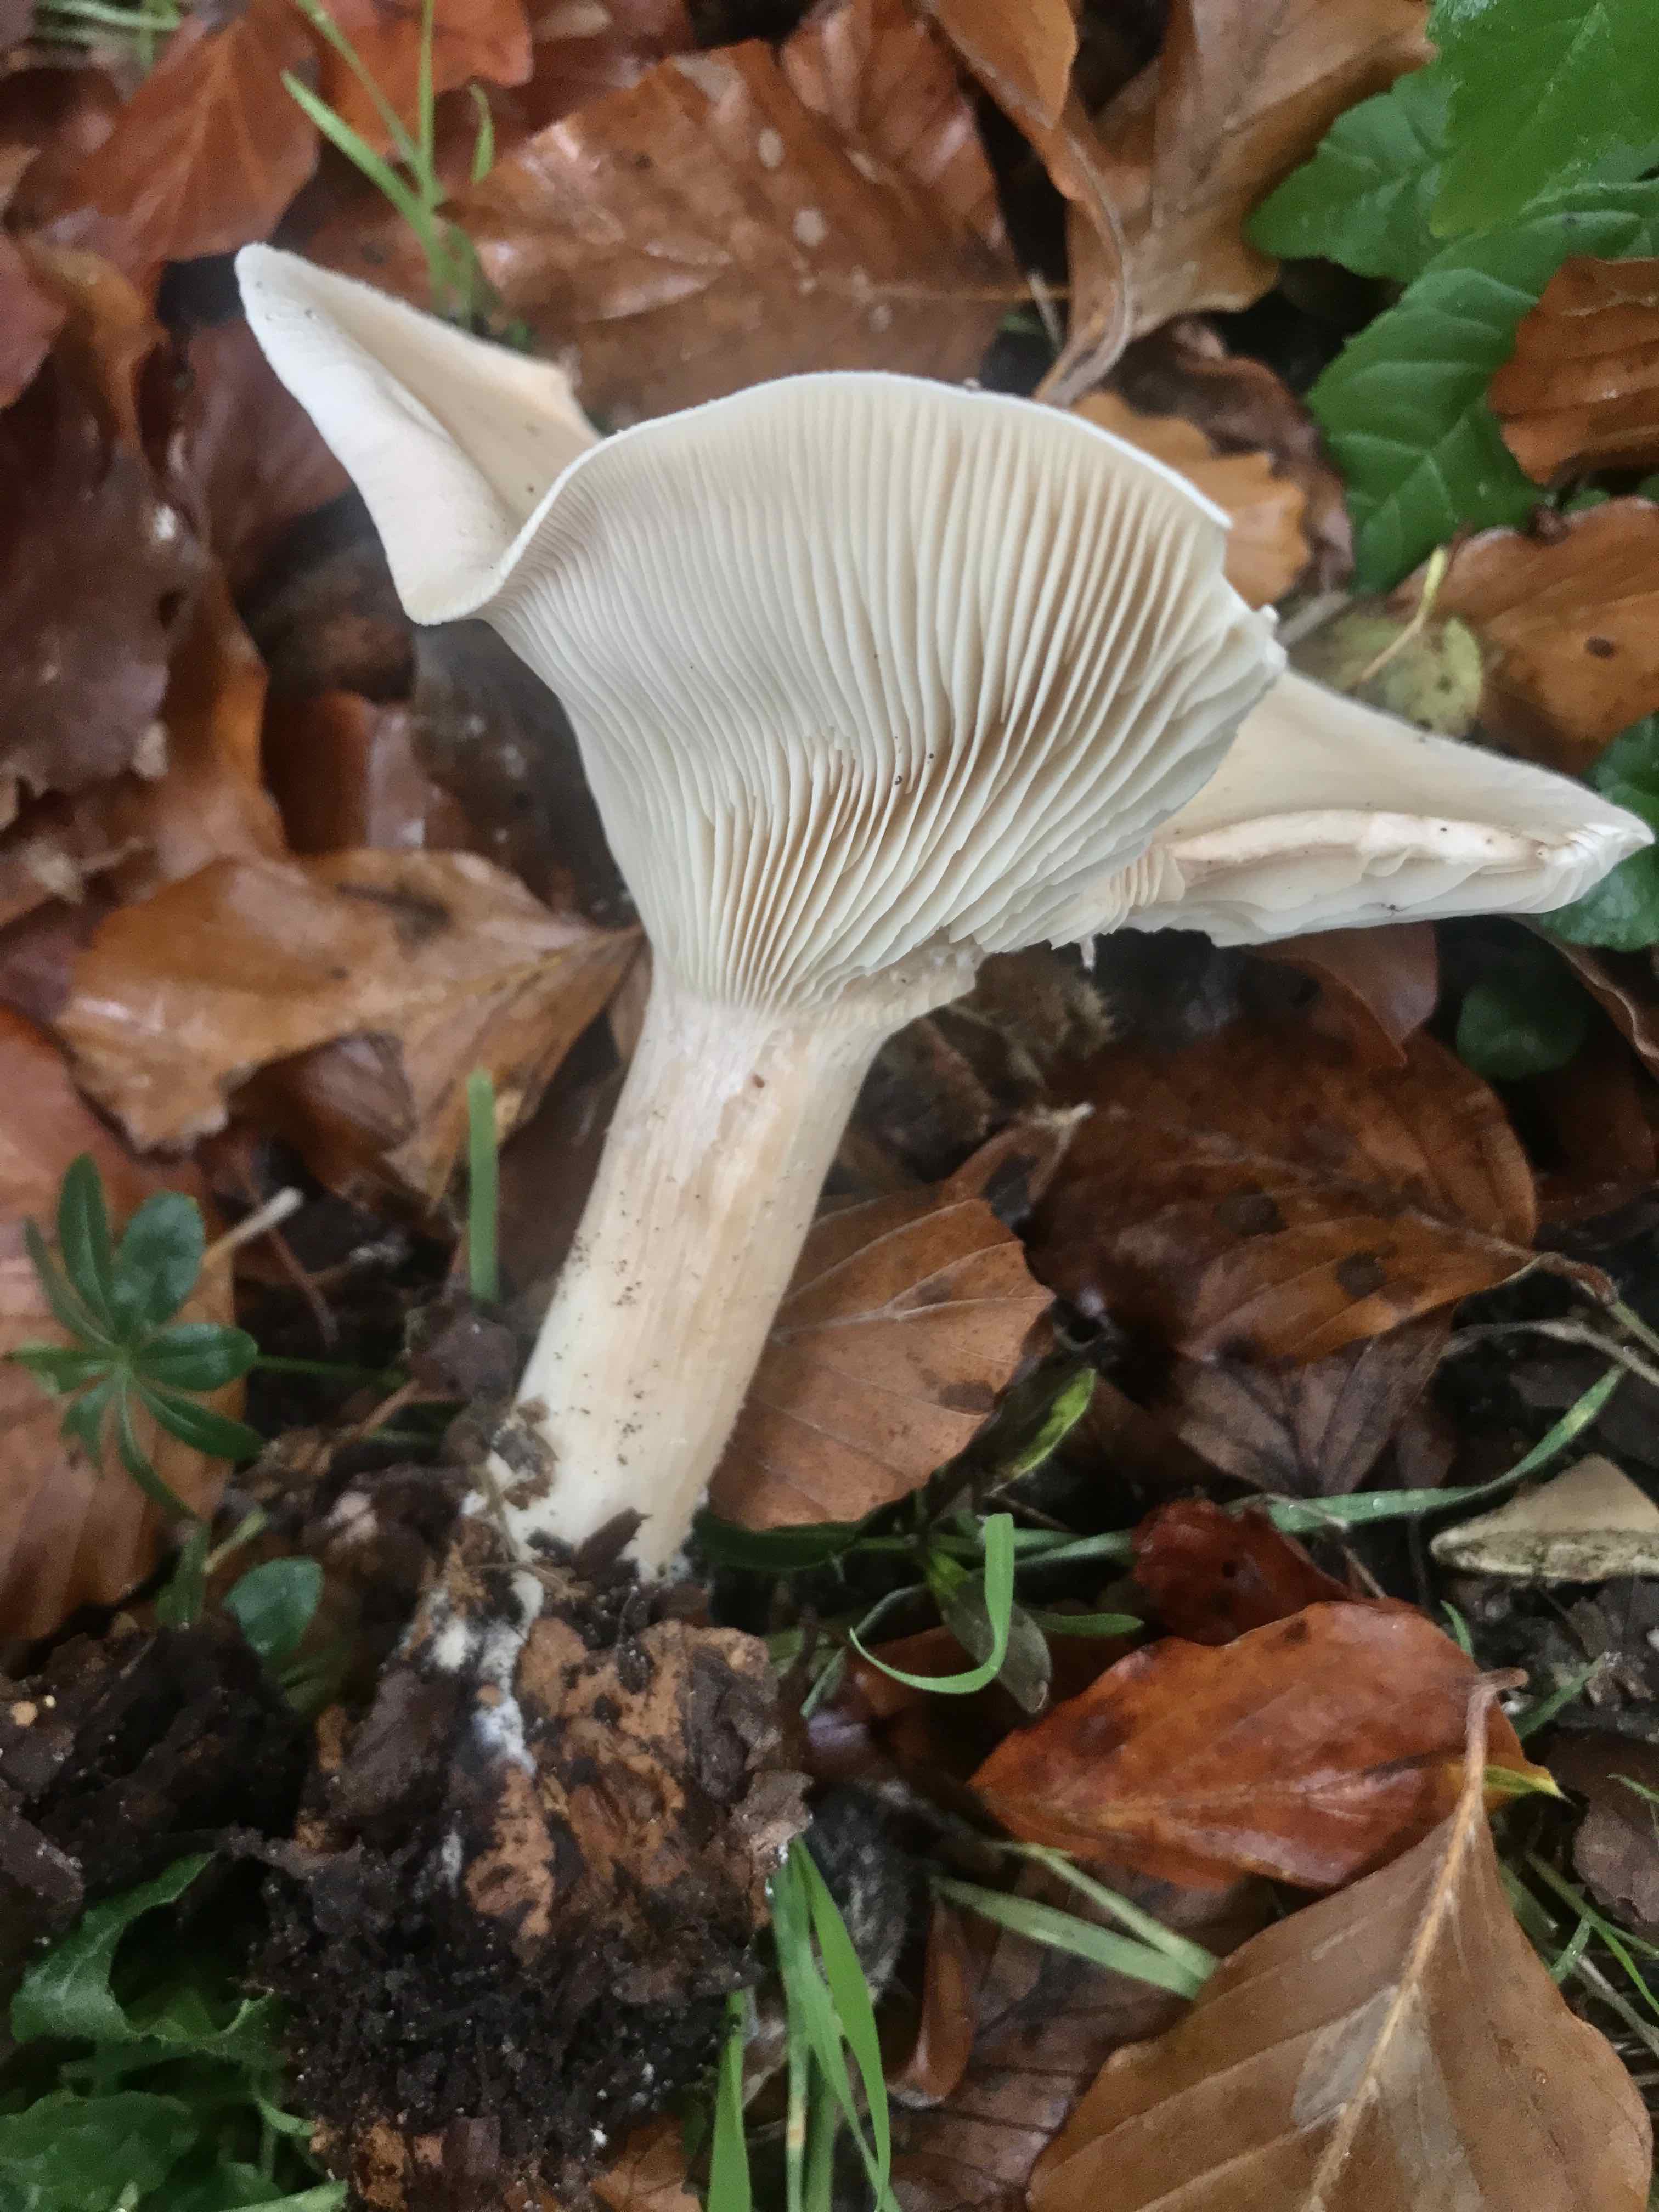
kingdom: Fungi
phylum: Basidiomycota
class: Agaricomycetes
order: Agaricales
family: Tricholomataceae
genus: Infundibulicybe
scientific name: Infundibulicybe geotropa
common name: stor tragthat
